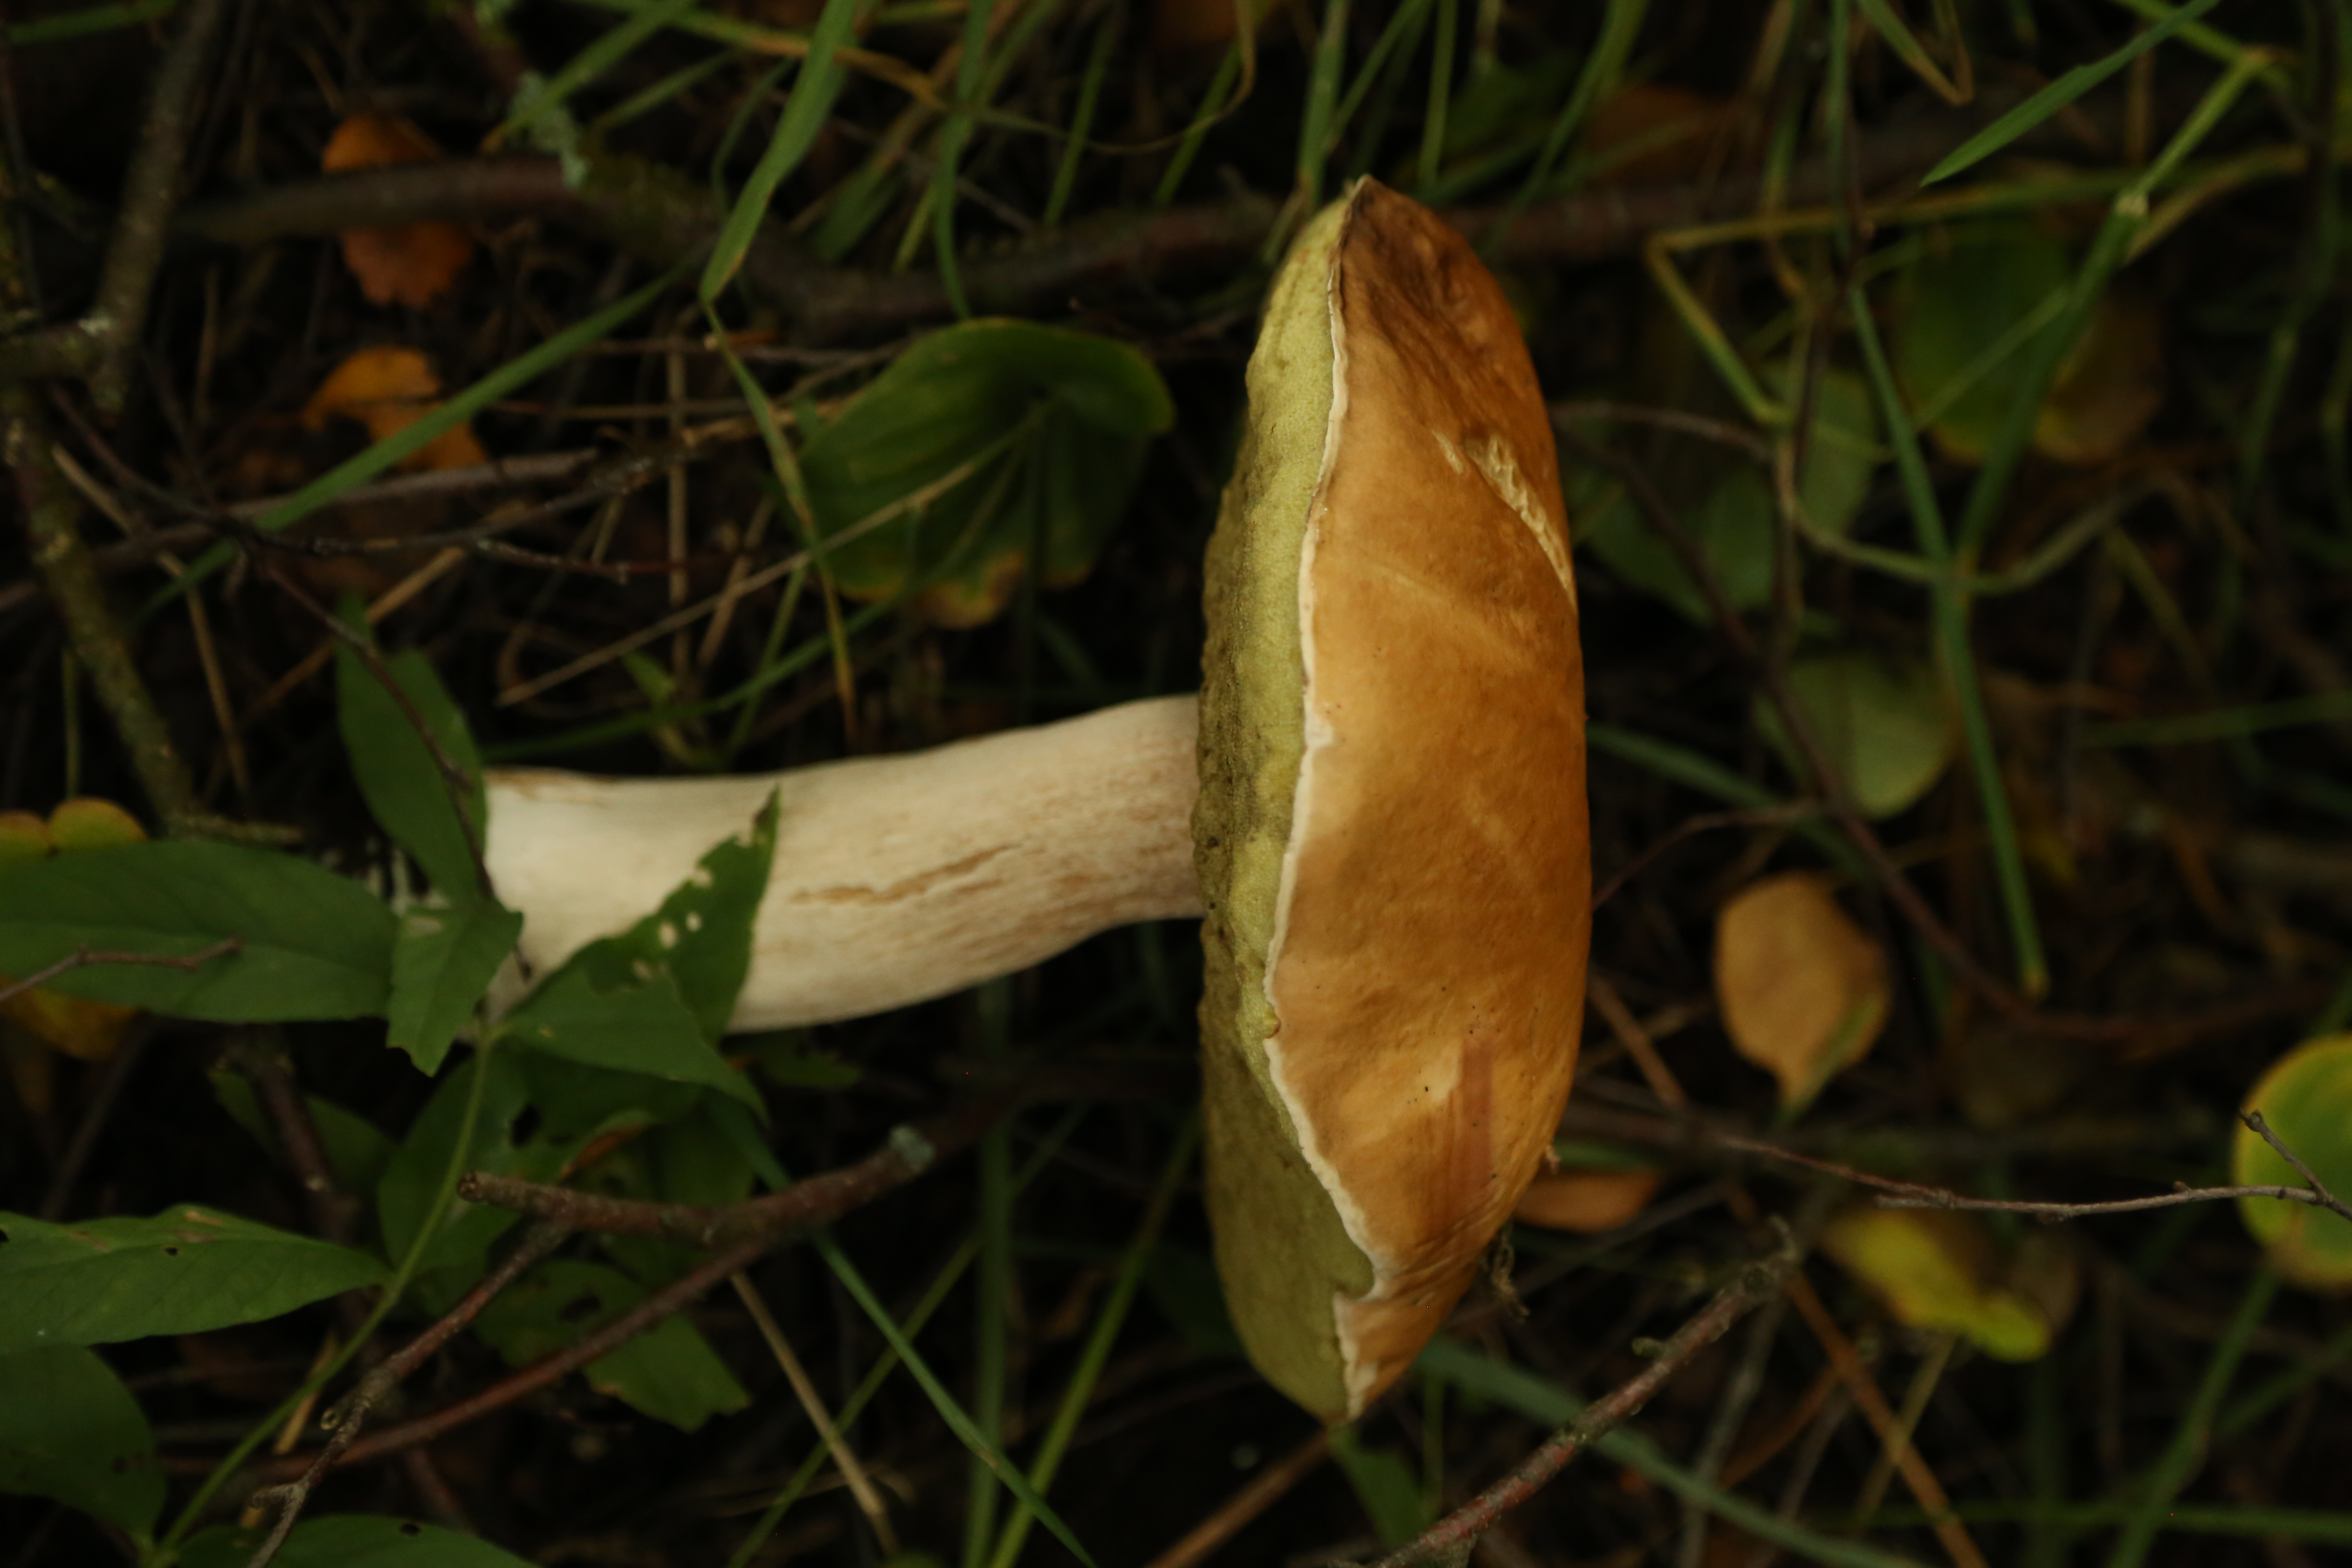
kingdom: Fungi
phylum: Basidiomycota
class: Agaricomycetes
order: Boletales
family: Boletaceae
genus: Boletus
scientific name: Boletus edulis
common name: Cep
